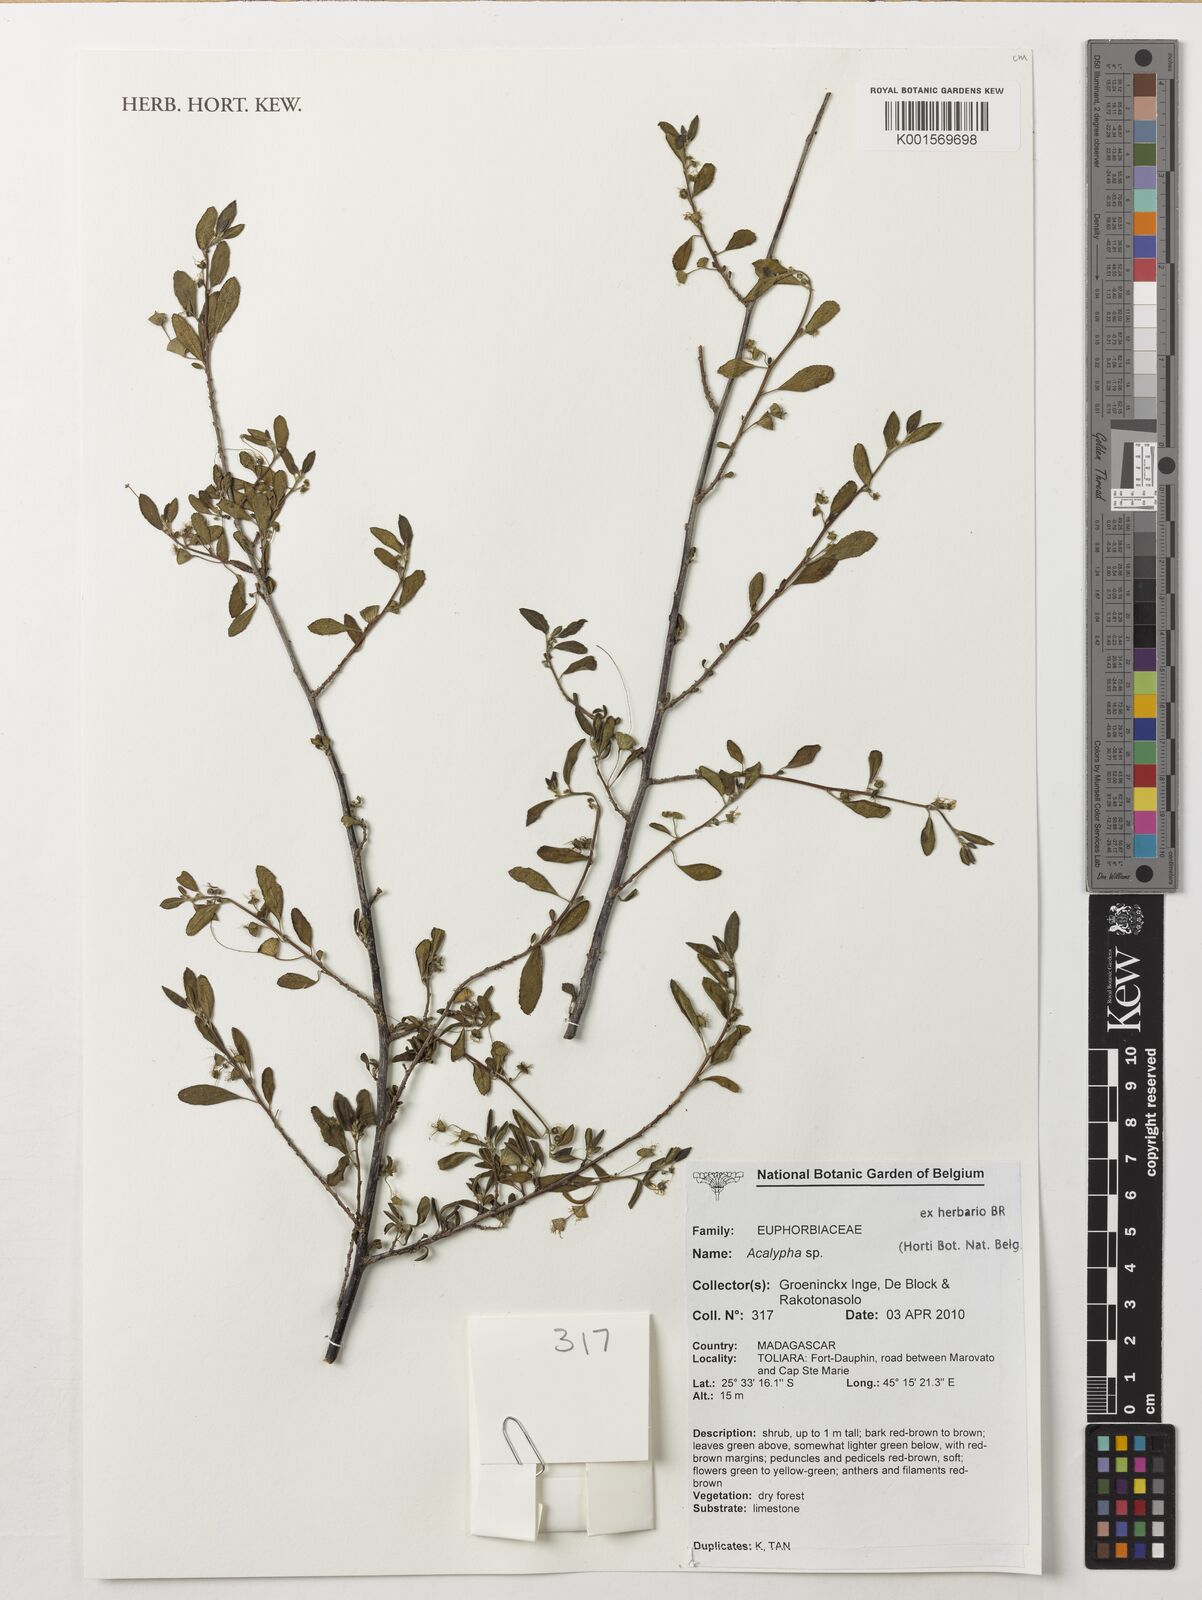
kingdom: Plantae
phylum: Tracheophyta
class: Magnoliopsida
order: Malpighiales
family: Euphorbiaceae
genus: Acalypha
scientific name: Acalypha
